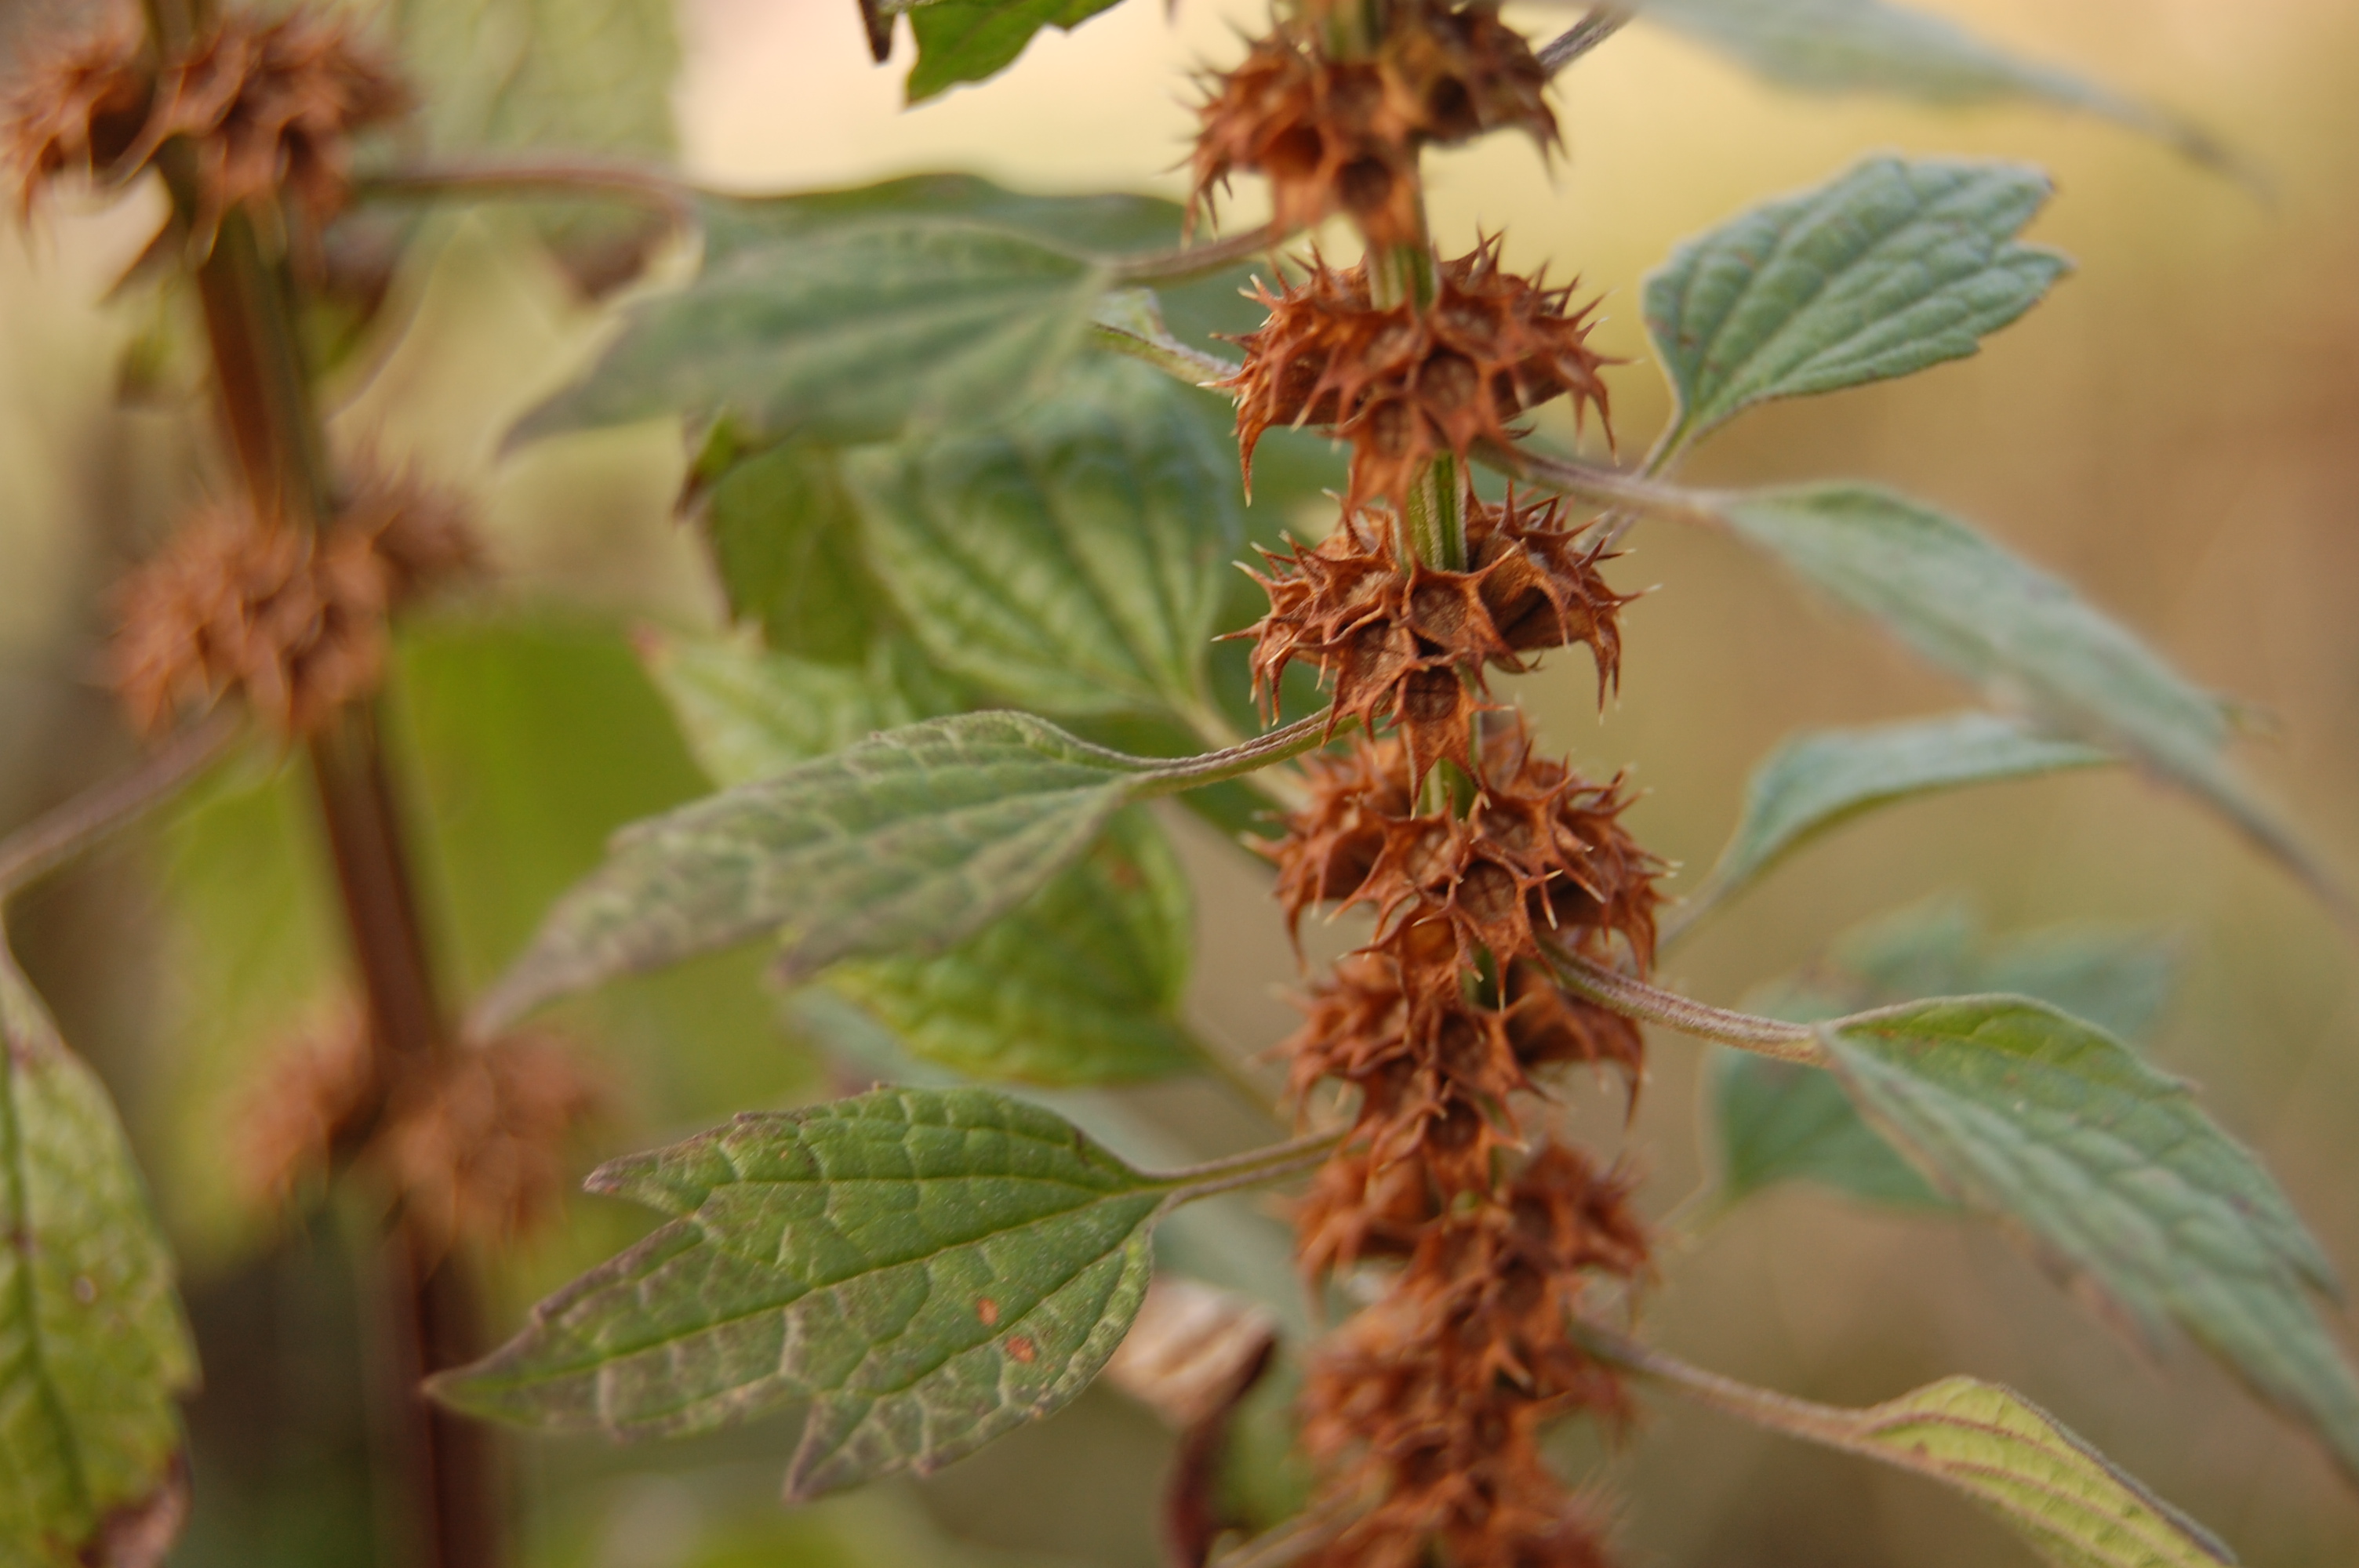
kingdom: Plantae
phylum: Tracheophyta
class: Magnoliopsida
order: Lamiales
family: Lamiaceae
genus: Leonurus
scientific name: Leonurus cardiaca
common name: Motherwort
